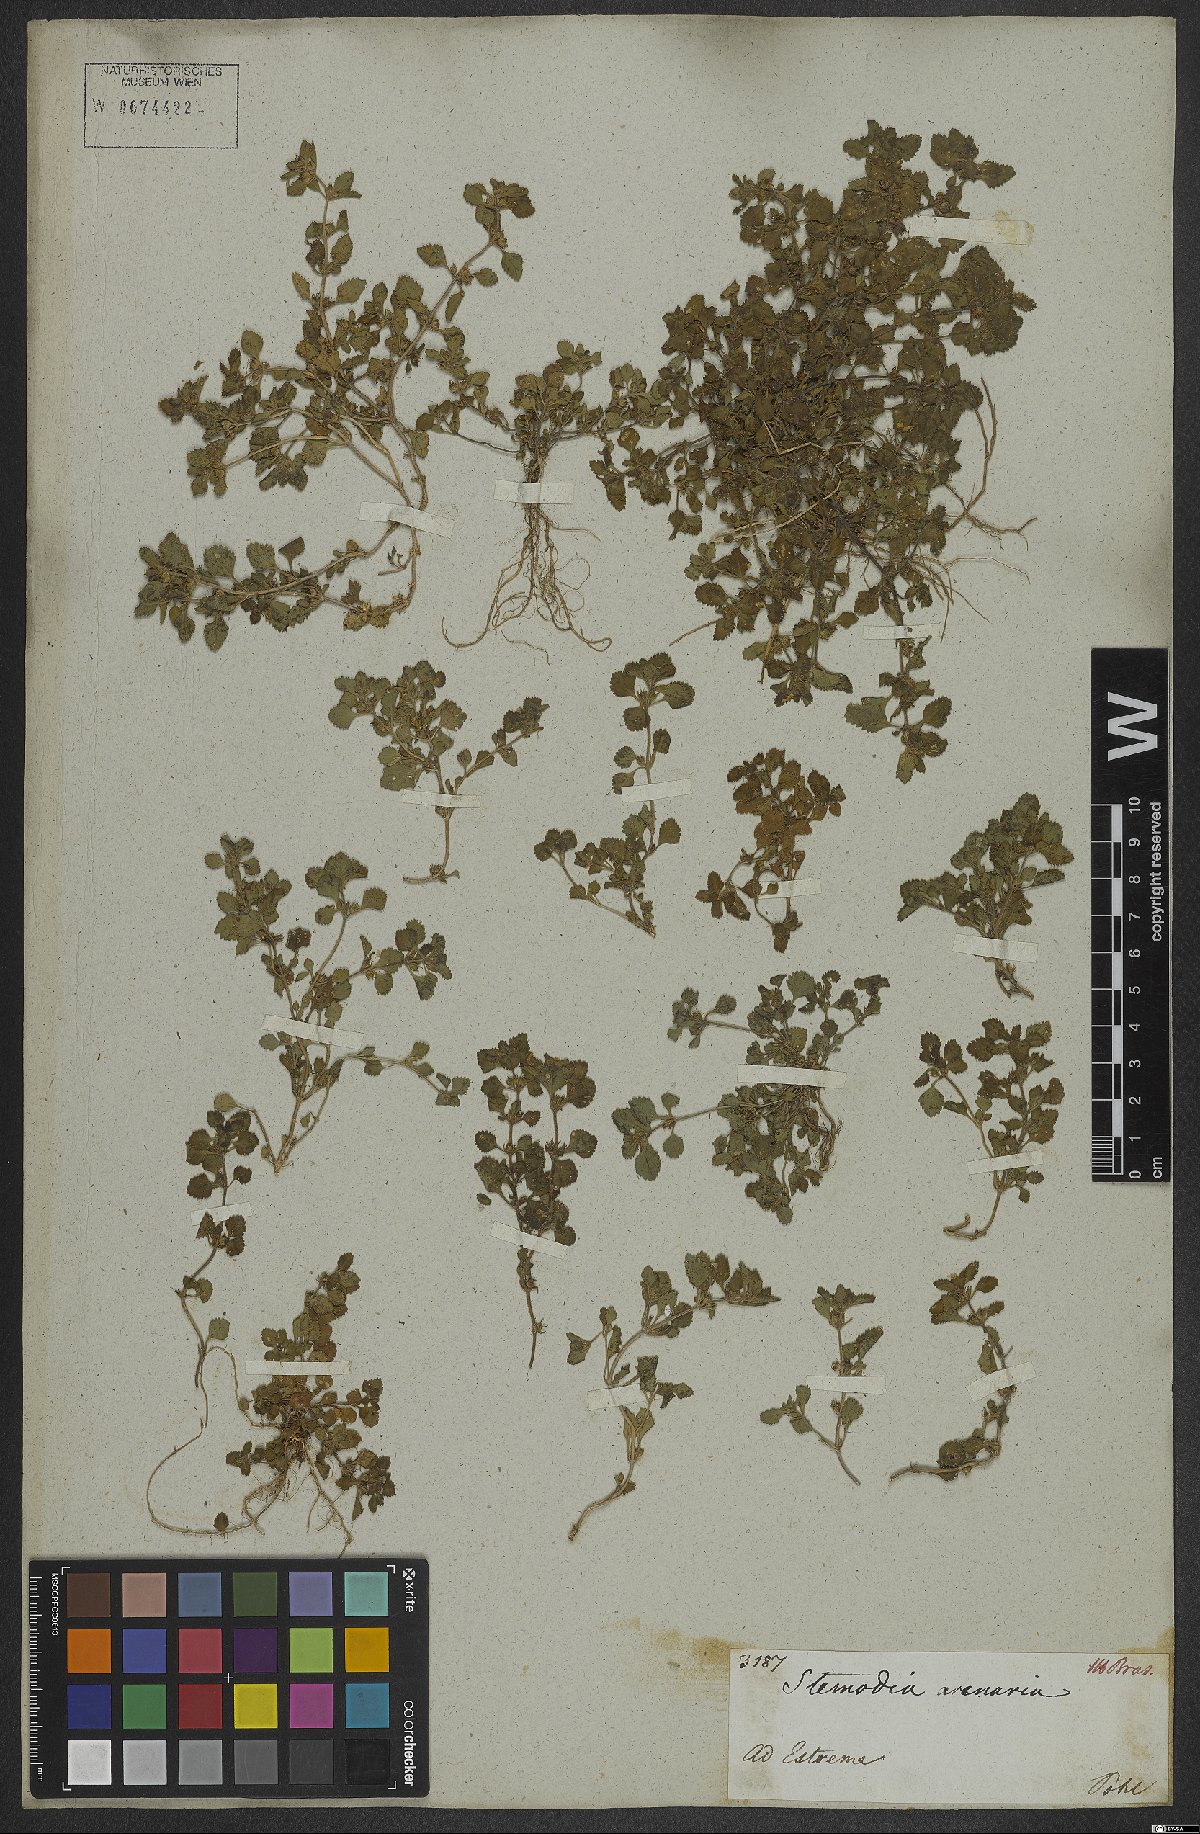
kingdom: Plantae
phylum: Tracheophyta
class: Magnoliopsida
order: Lamiales
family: Plantaginaceae
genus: Stemodia
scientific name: Stemodia verticillata
